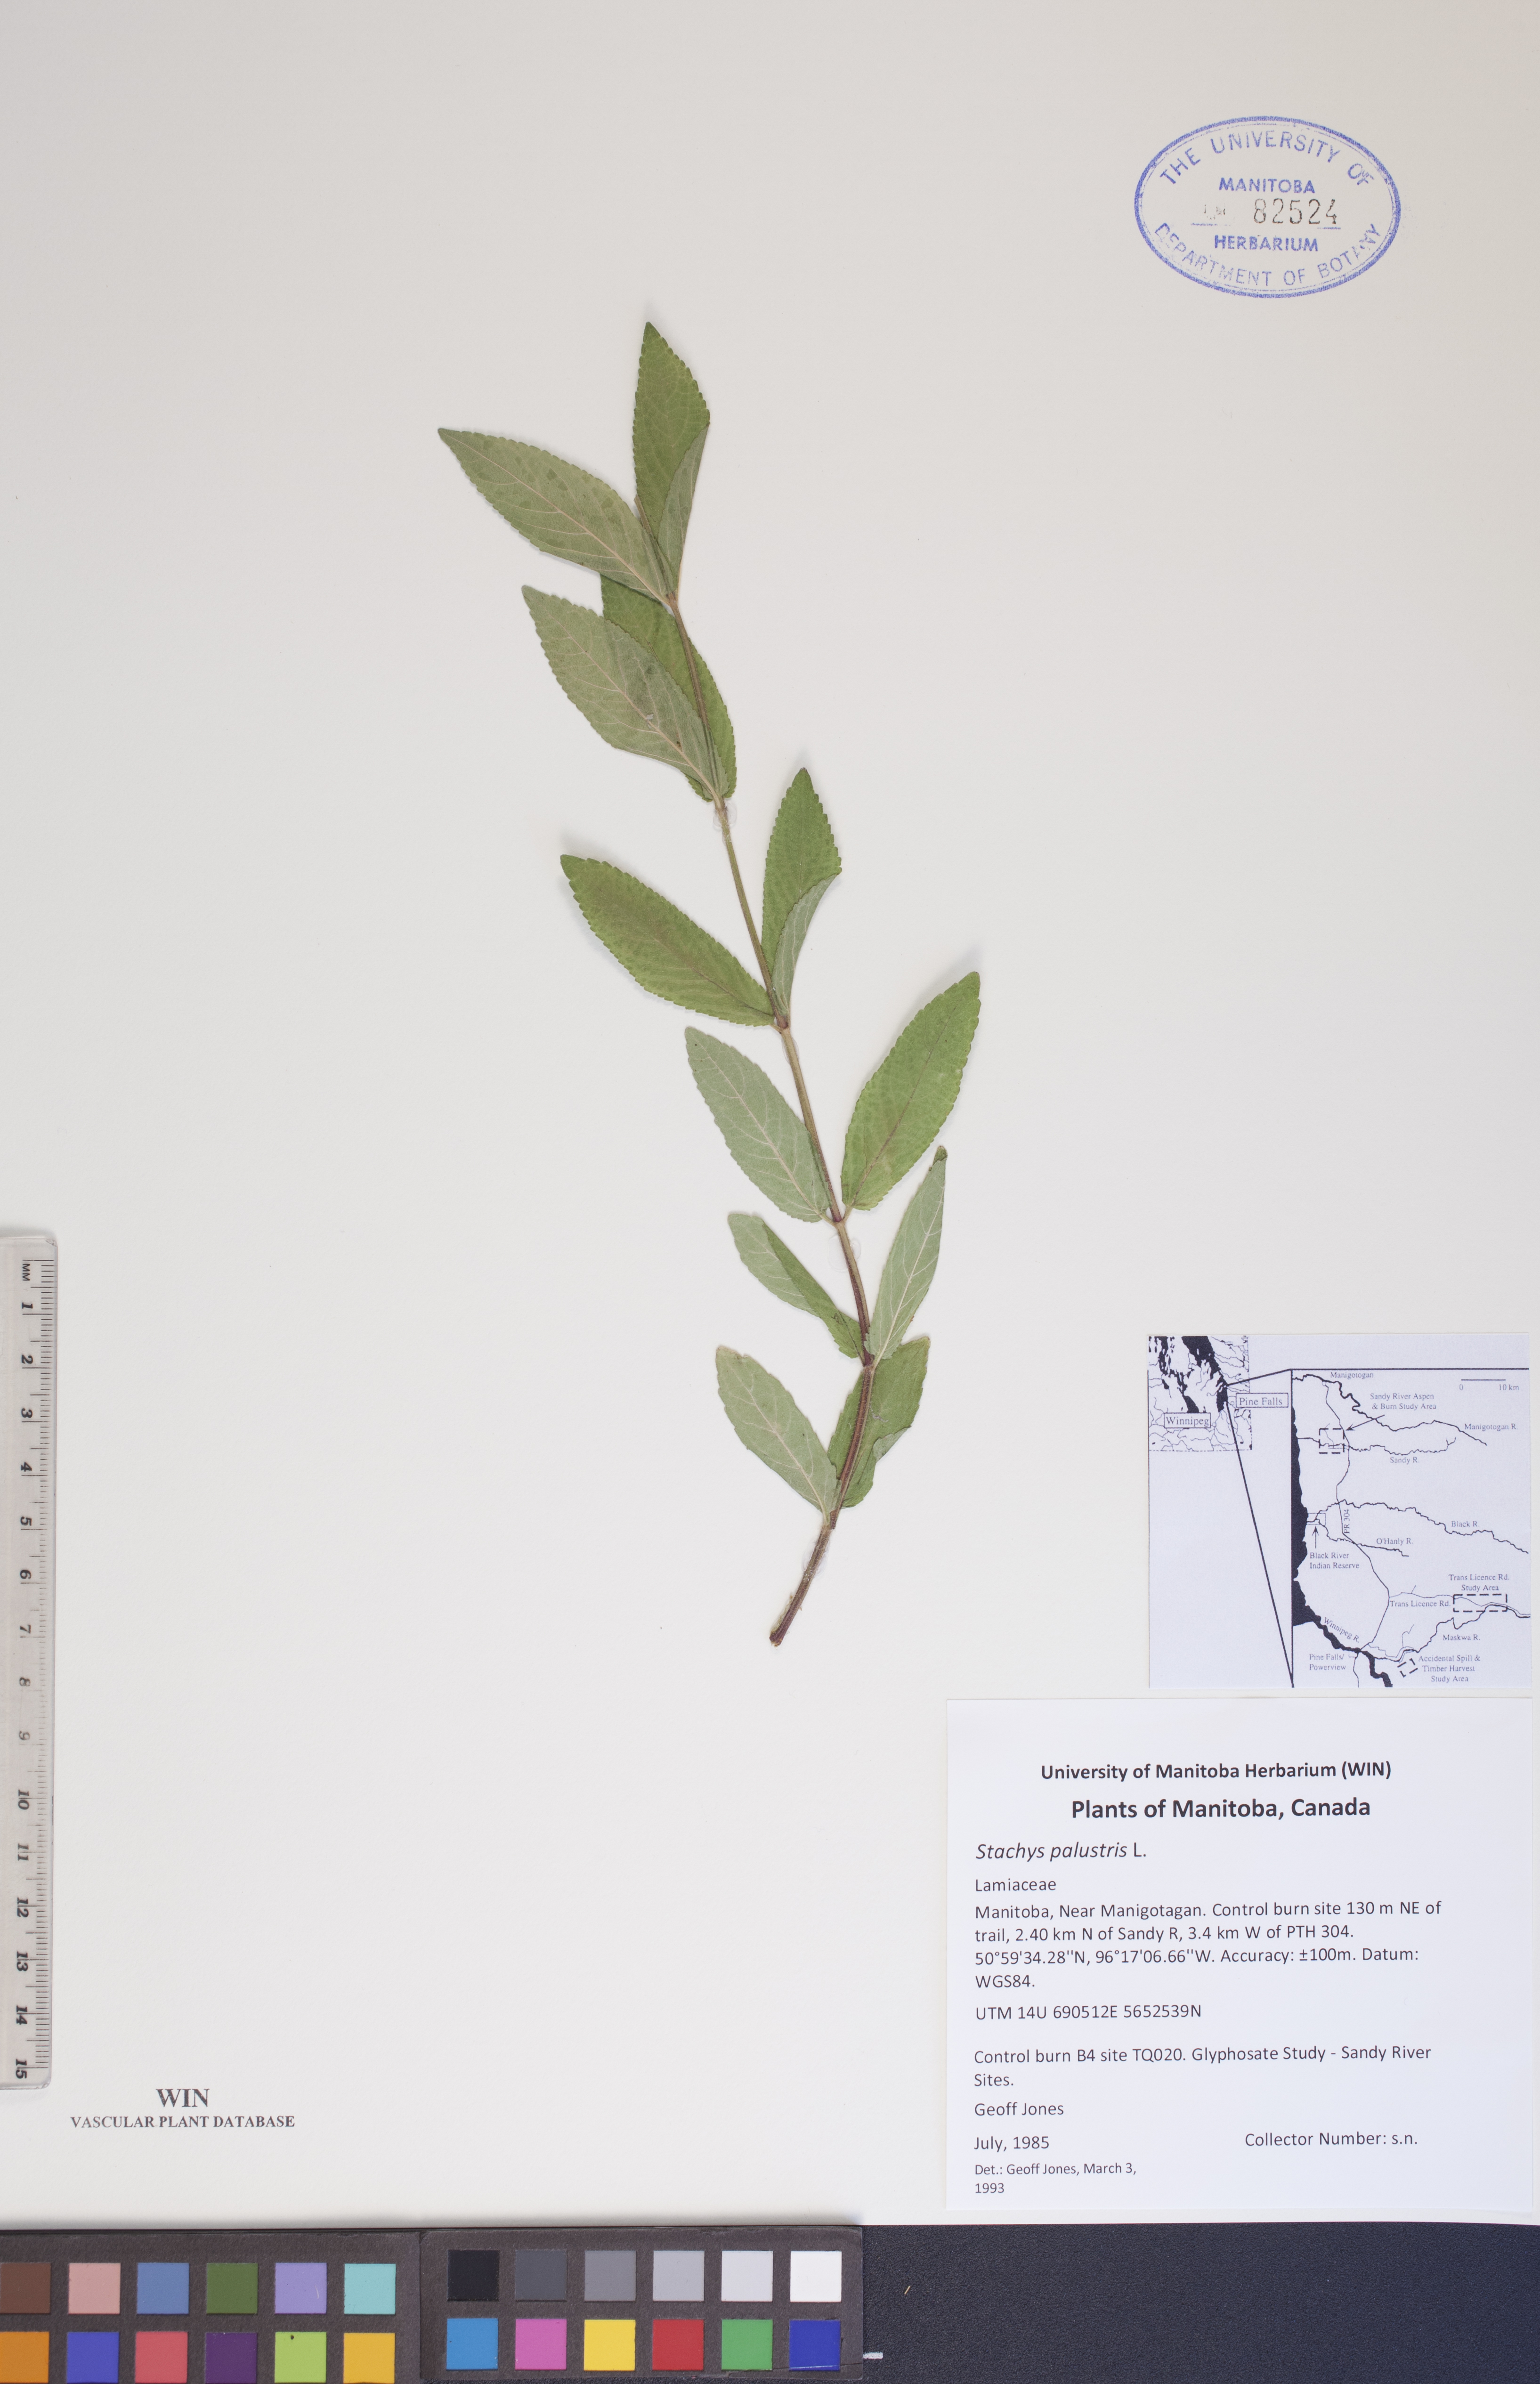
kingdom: Plantae
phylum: Tracheophyta
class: Magnoliopsida
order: Lamiales
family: Lamiaceae
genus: Stachys
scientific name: Stachys palustris
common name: Marsh woundwort
